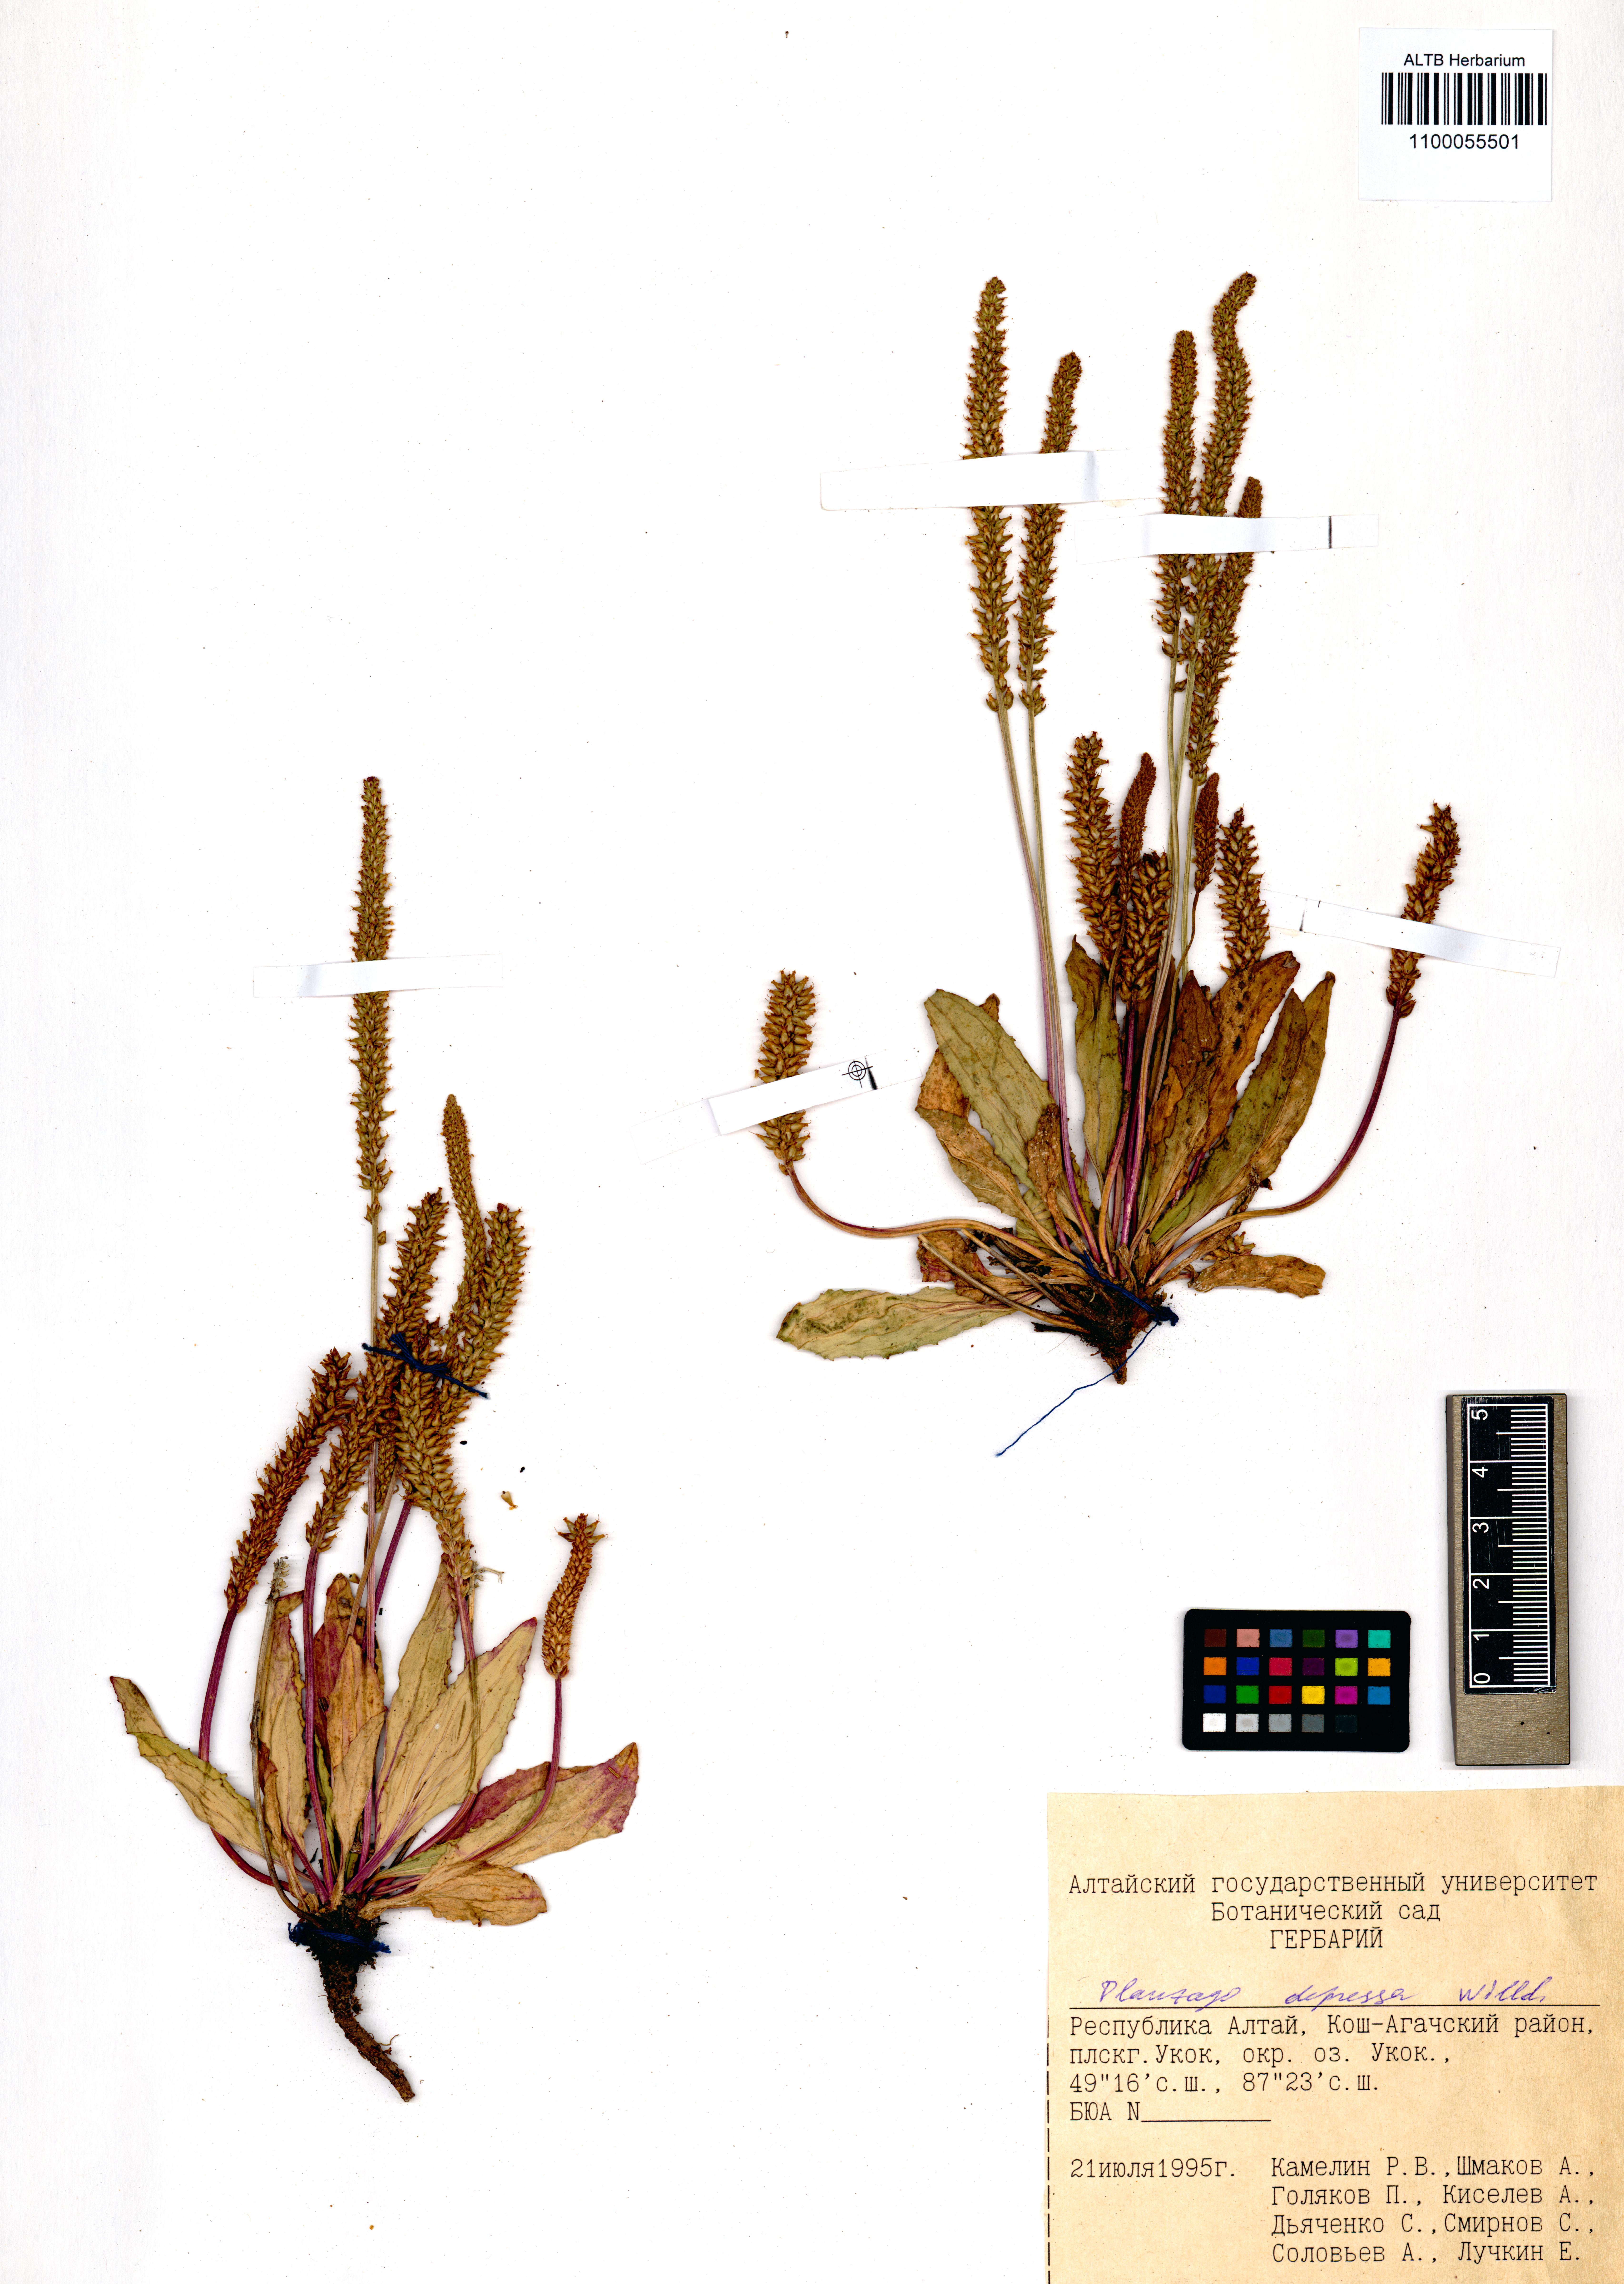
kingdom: Plantae
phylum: Tracheophyta
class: Magnoliopsida
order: Lamiales
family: Plantaginaceae
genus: Plantago
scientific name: Plantago depressa
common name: Depressed plantain
